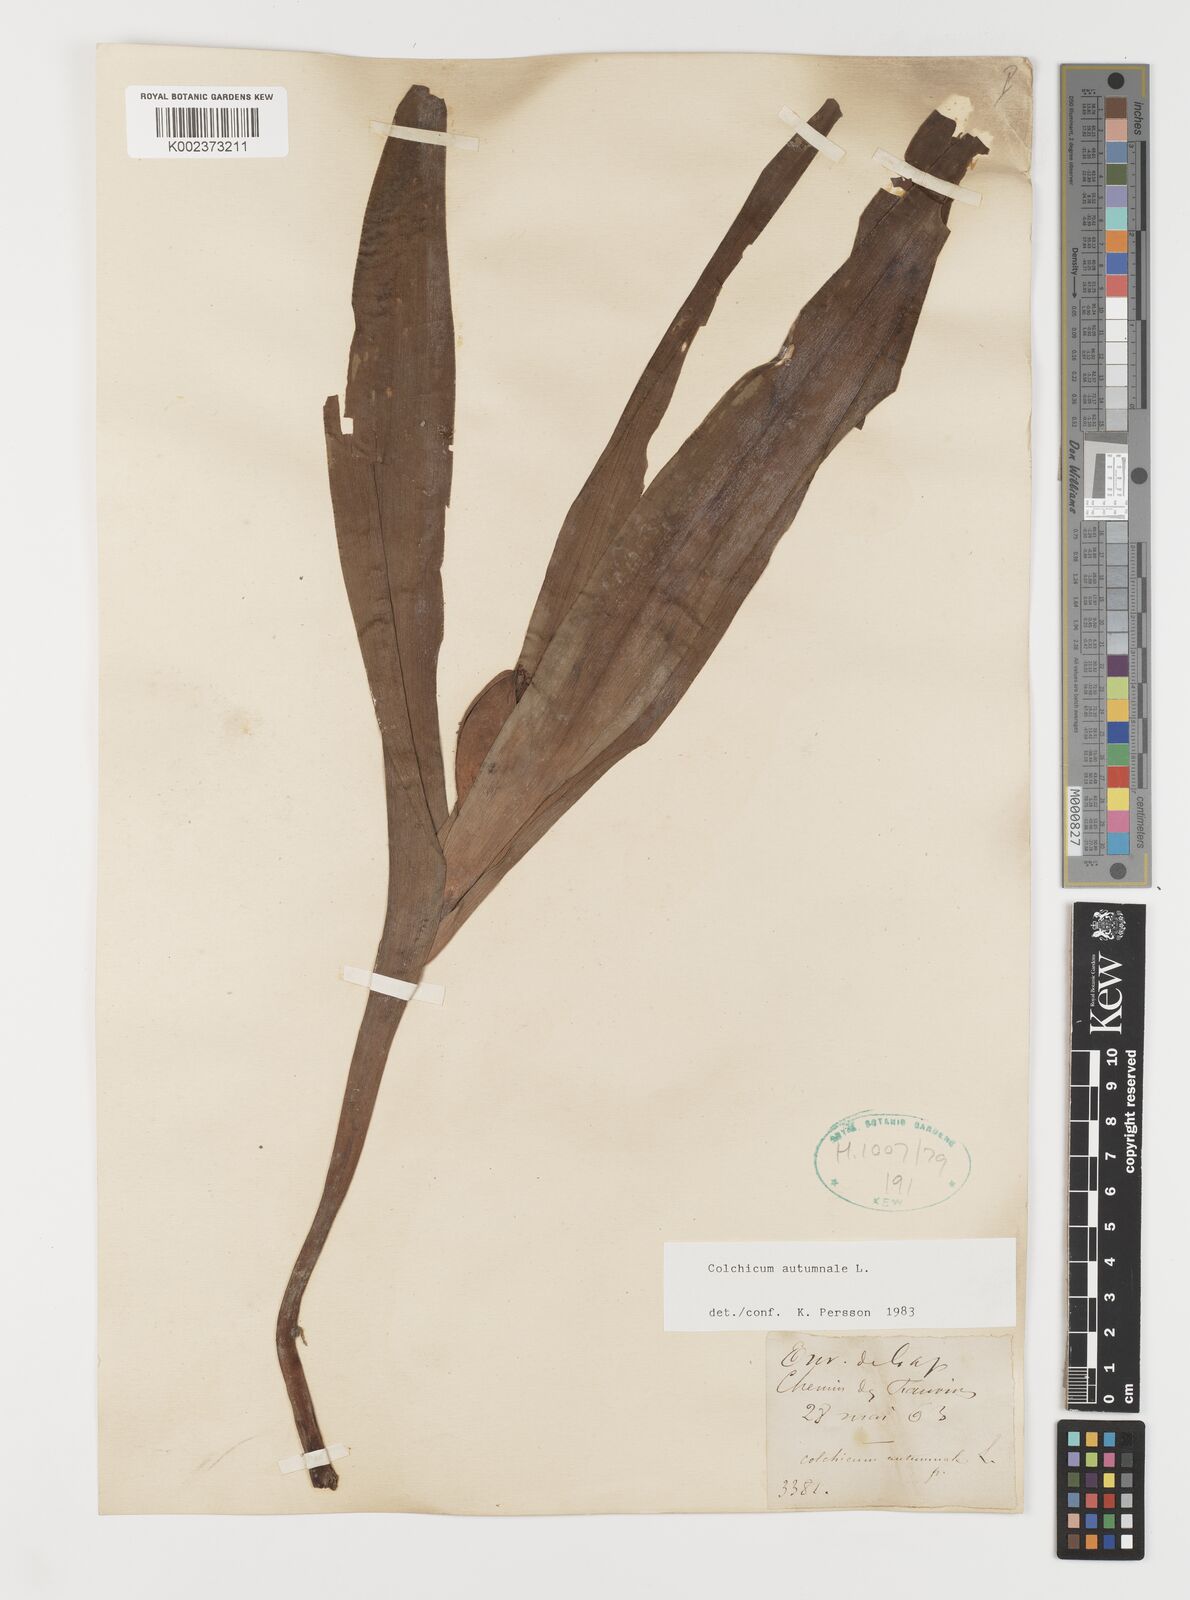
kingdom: Plantae
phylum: Tracheophyta
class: Liliopsida
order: Liliales
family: Colchicaceae
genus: Colchicum
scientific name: Colchicum autumnale
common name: Autumn crocus
